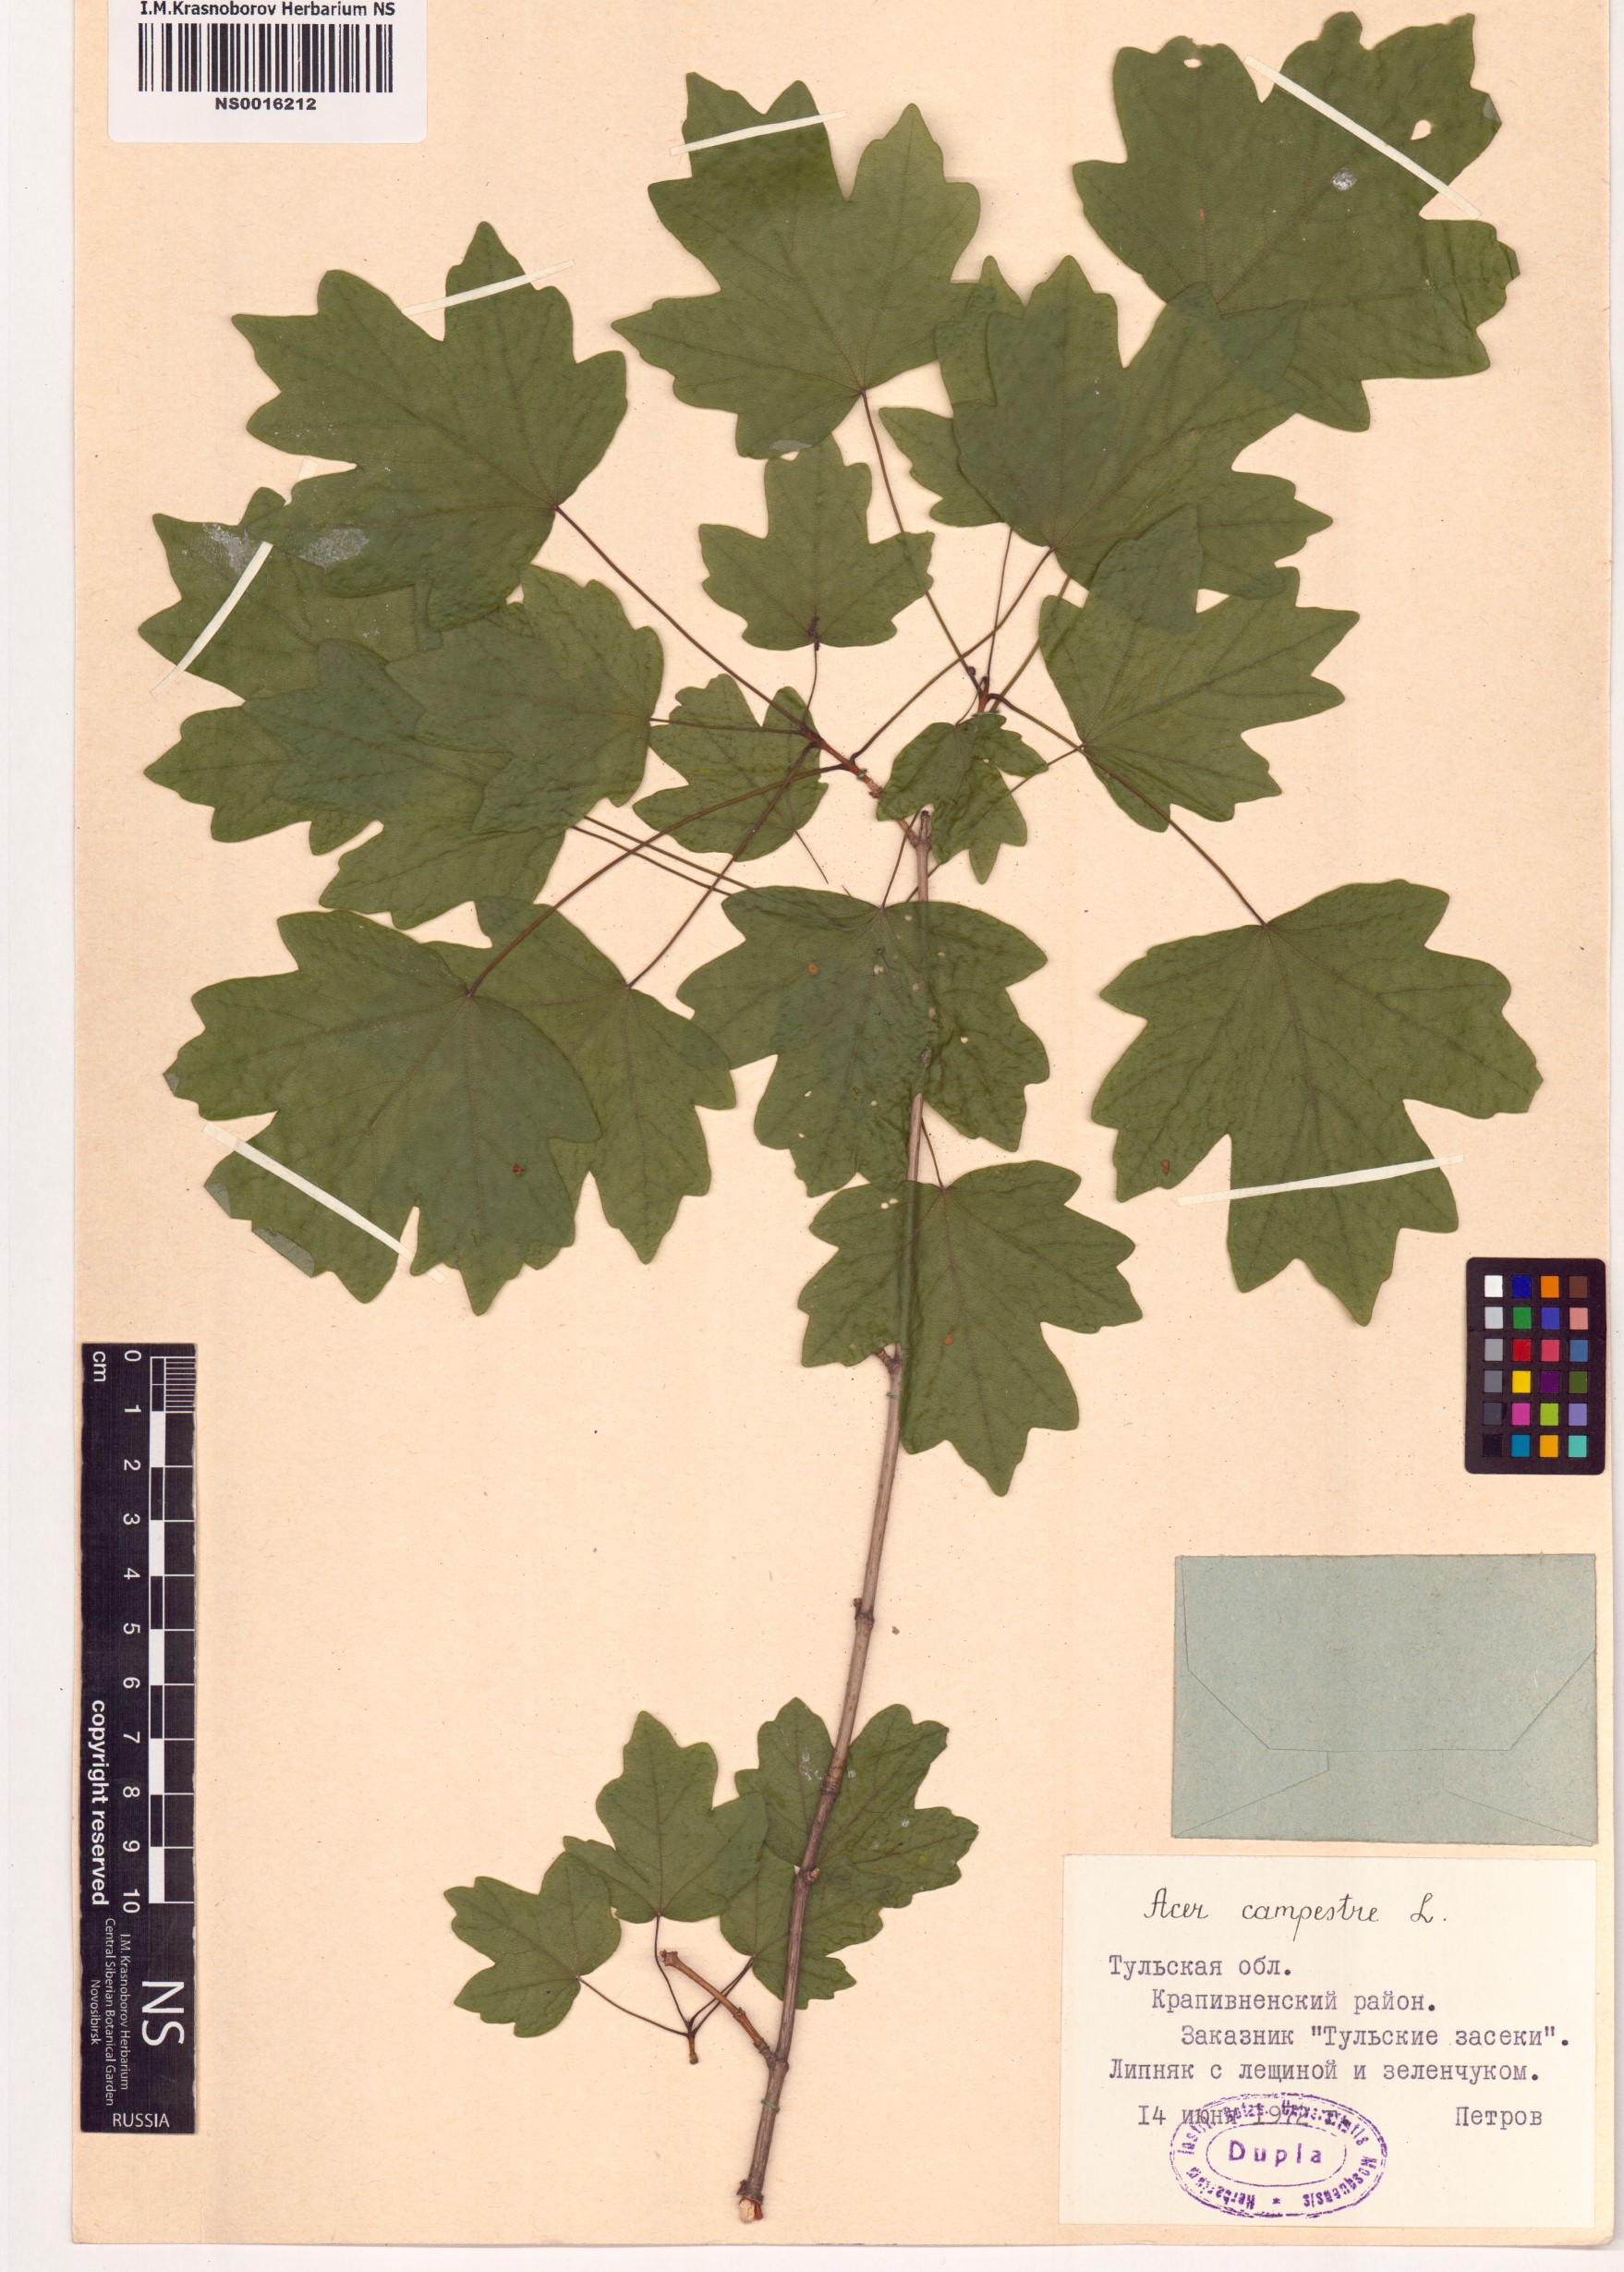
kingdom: Plantae
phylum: Tracheophyta
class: Magnoliopsida
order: Sapindales
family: Sapindaceae
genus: Acer
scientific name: Acer campestre
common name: Field maple
